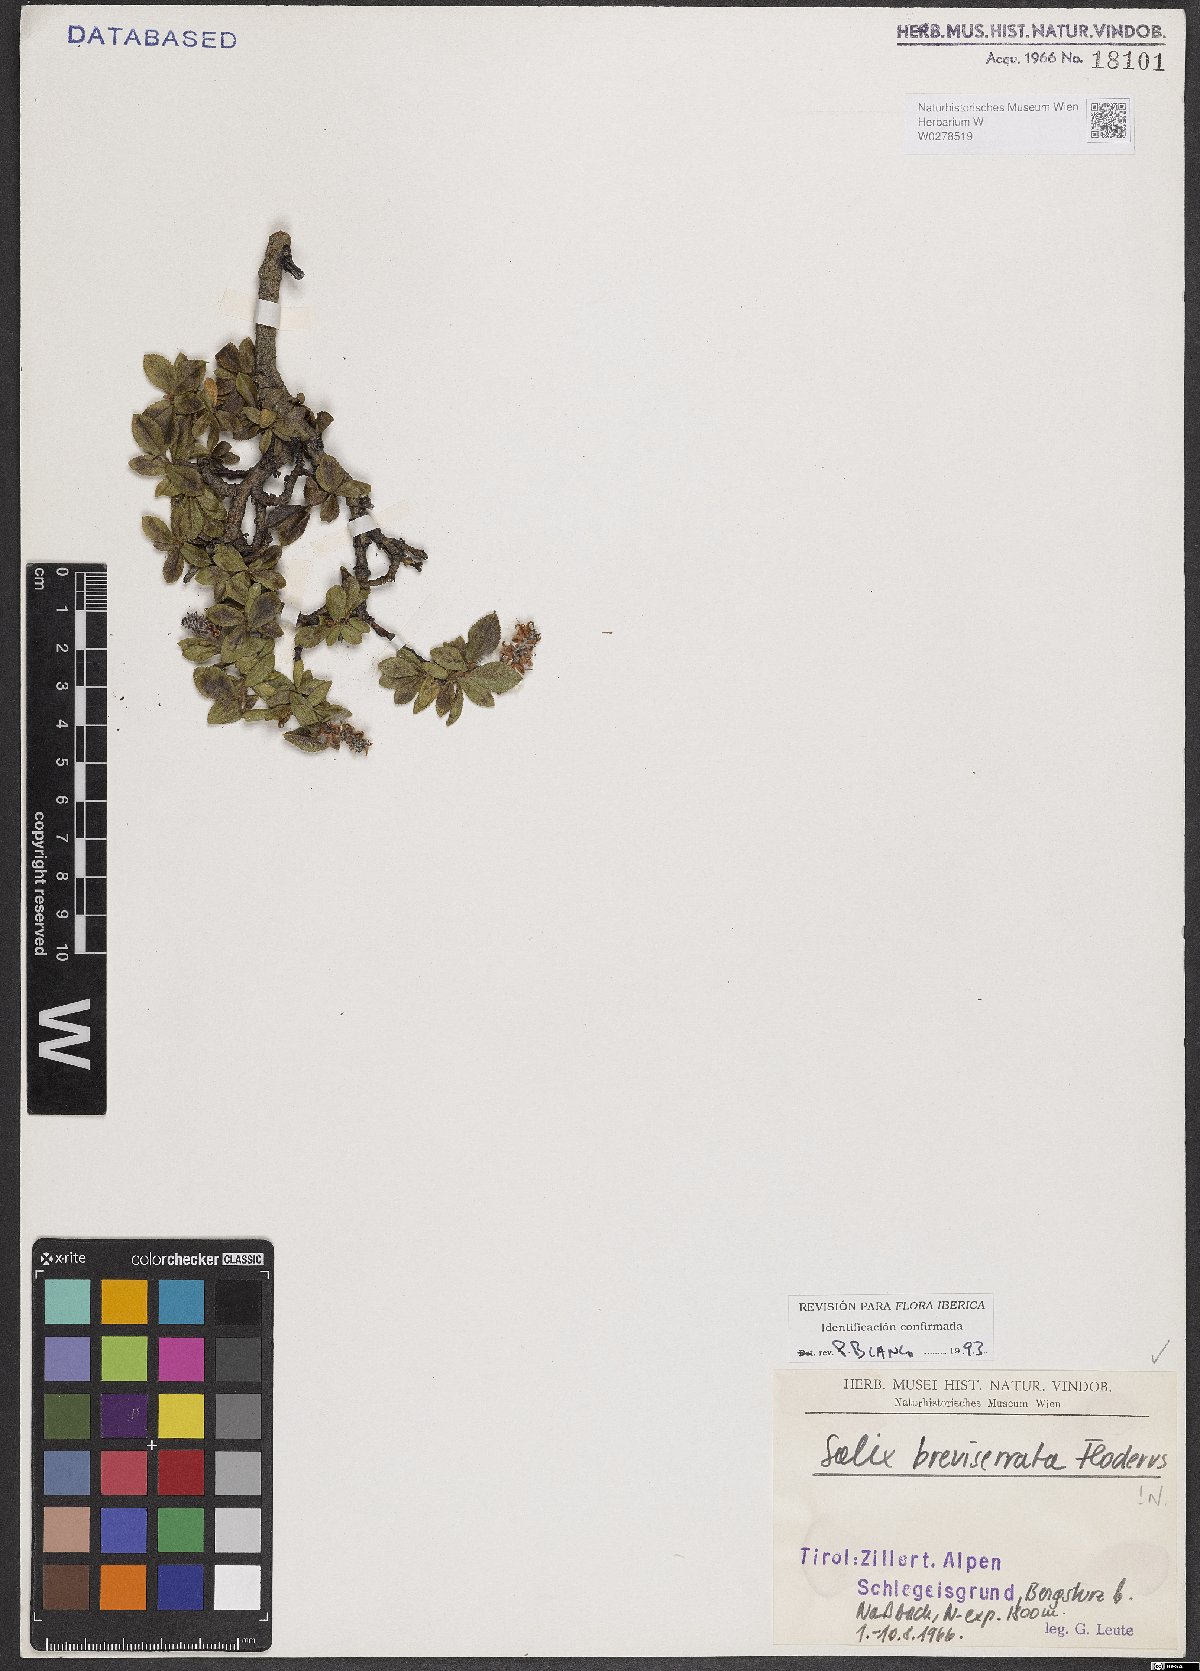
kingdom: Plantae
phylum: Tracheophyta
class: Magnoliopsida
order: Malpighiales
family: Salicaceae
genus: Salix
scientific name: Salix breviserrata
